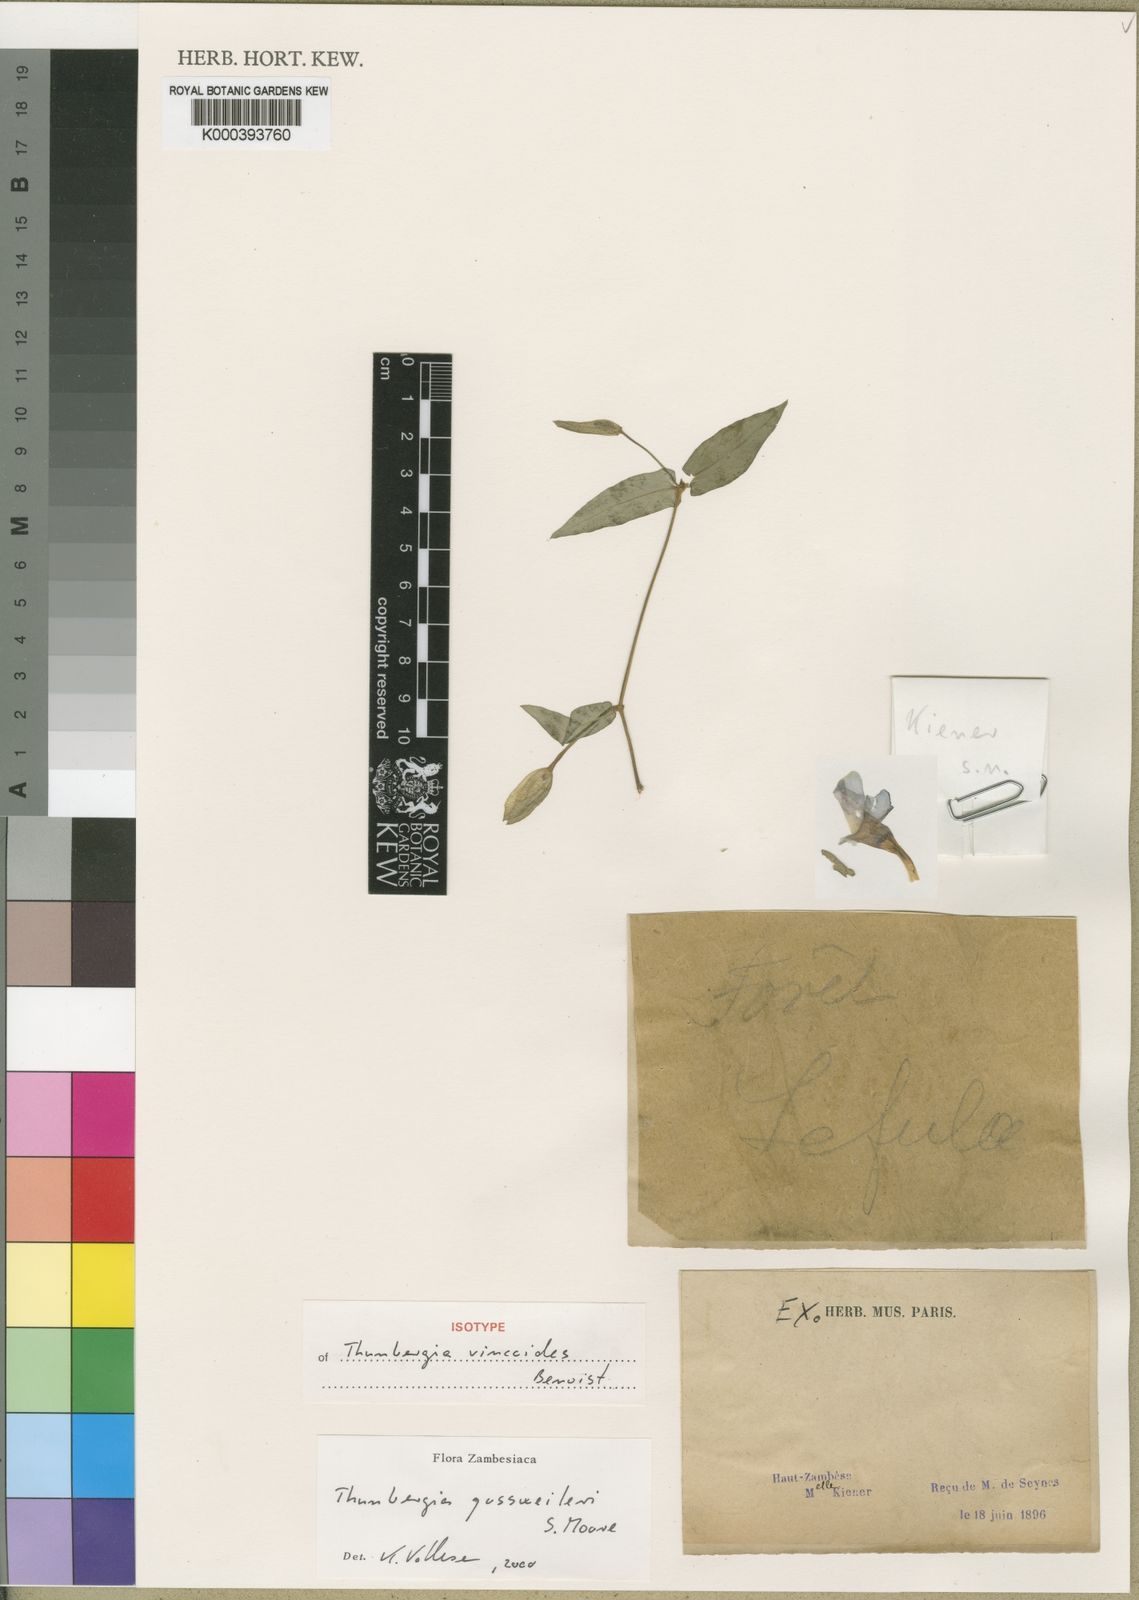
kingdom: Plantae
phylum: Tracheophyta
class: Magnoliopsida
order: Lamiales
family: Acanthaceae
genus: Thunbergia
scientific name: Thunbergia gossweileri
